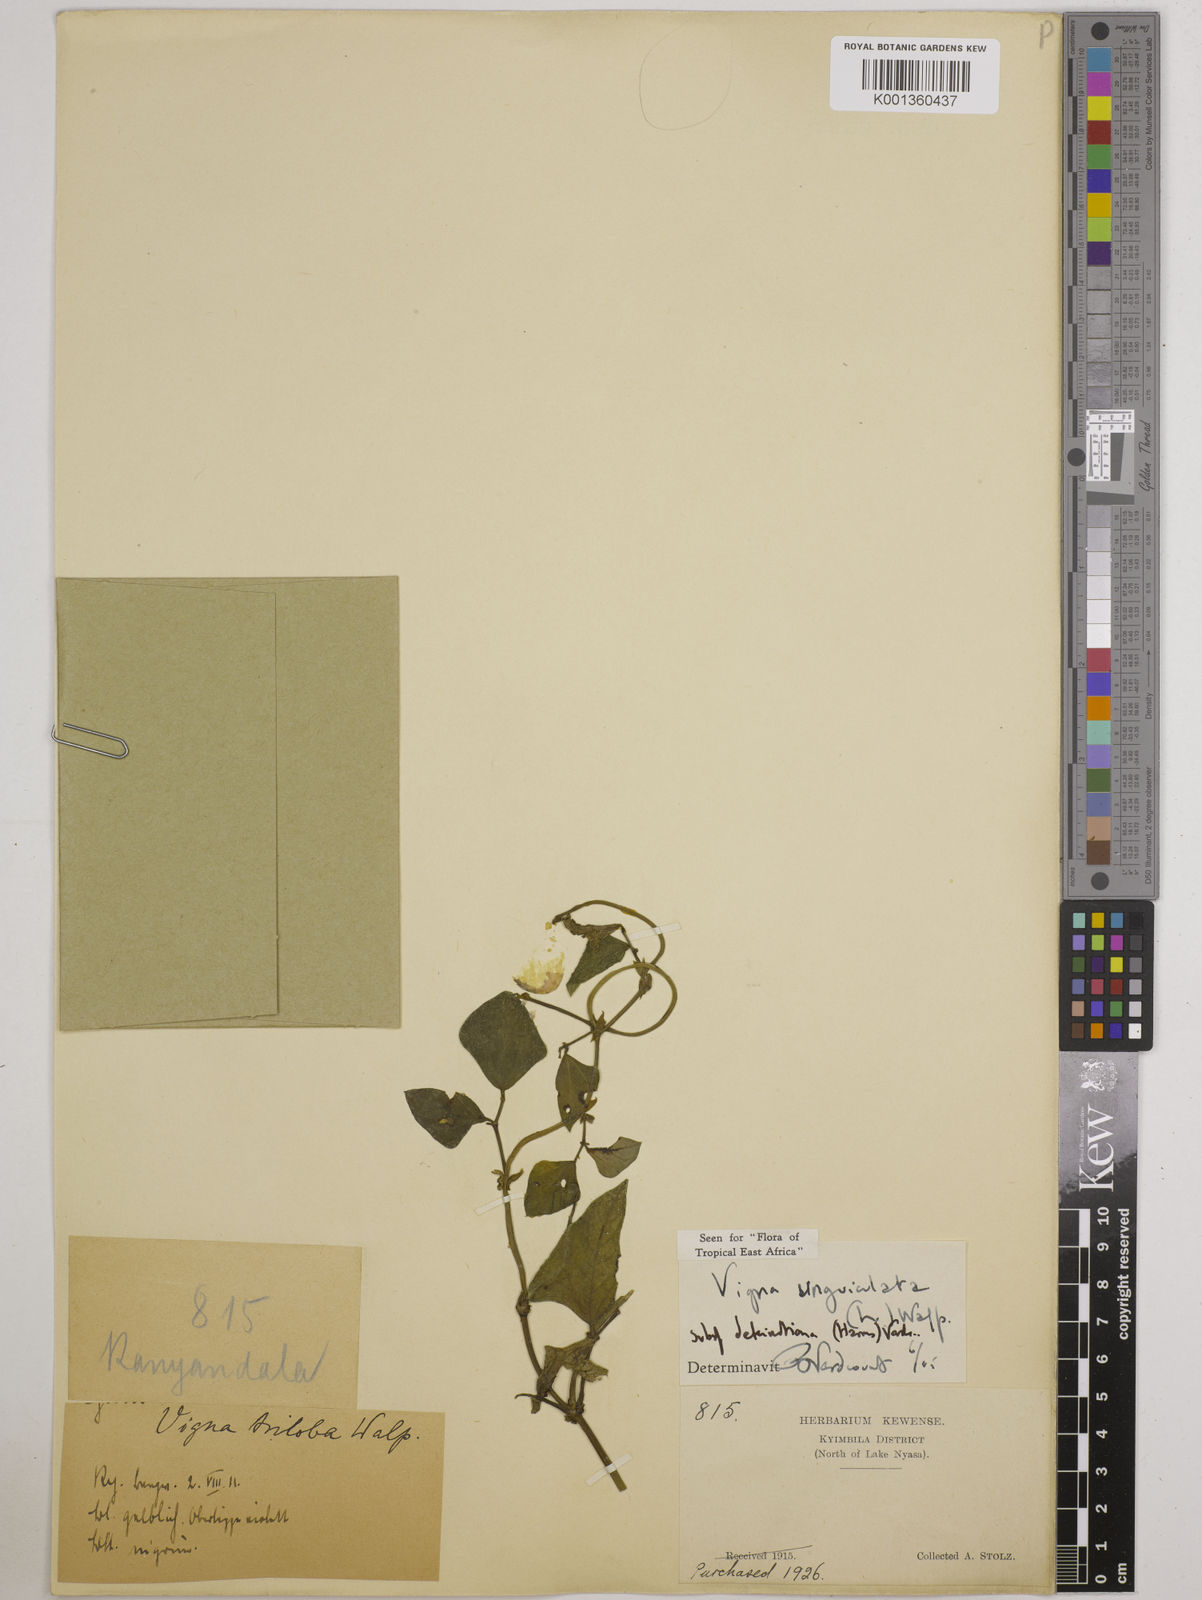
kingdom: Plantae
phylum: Tracheophyta
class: Magnoliopsida
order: Fabales
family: Fabaceae
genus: Vigna
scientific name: Vigna
